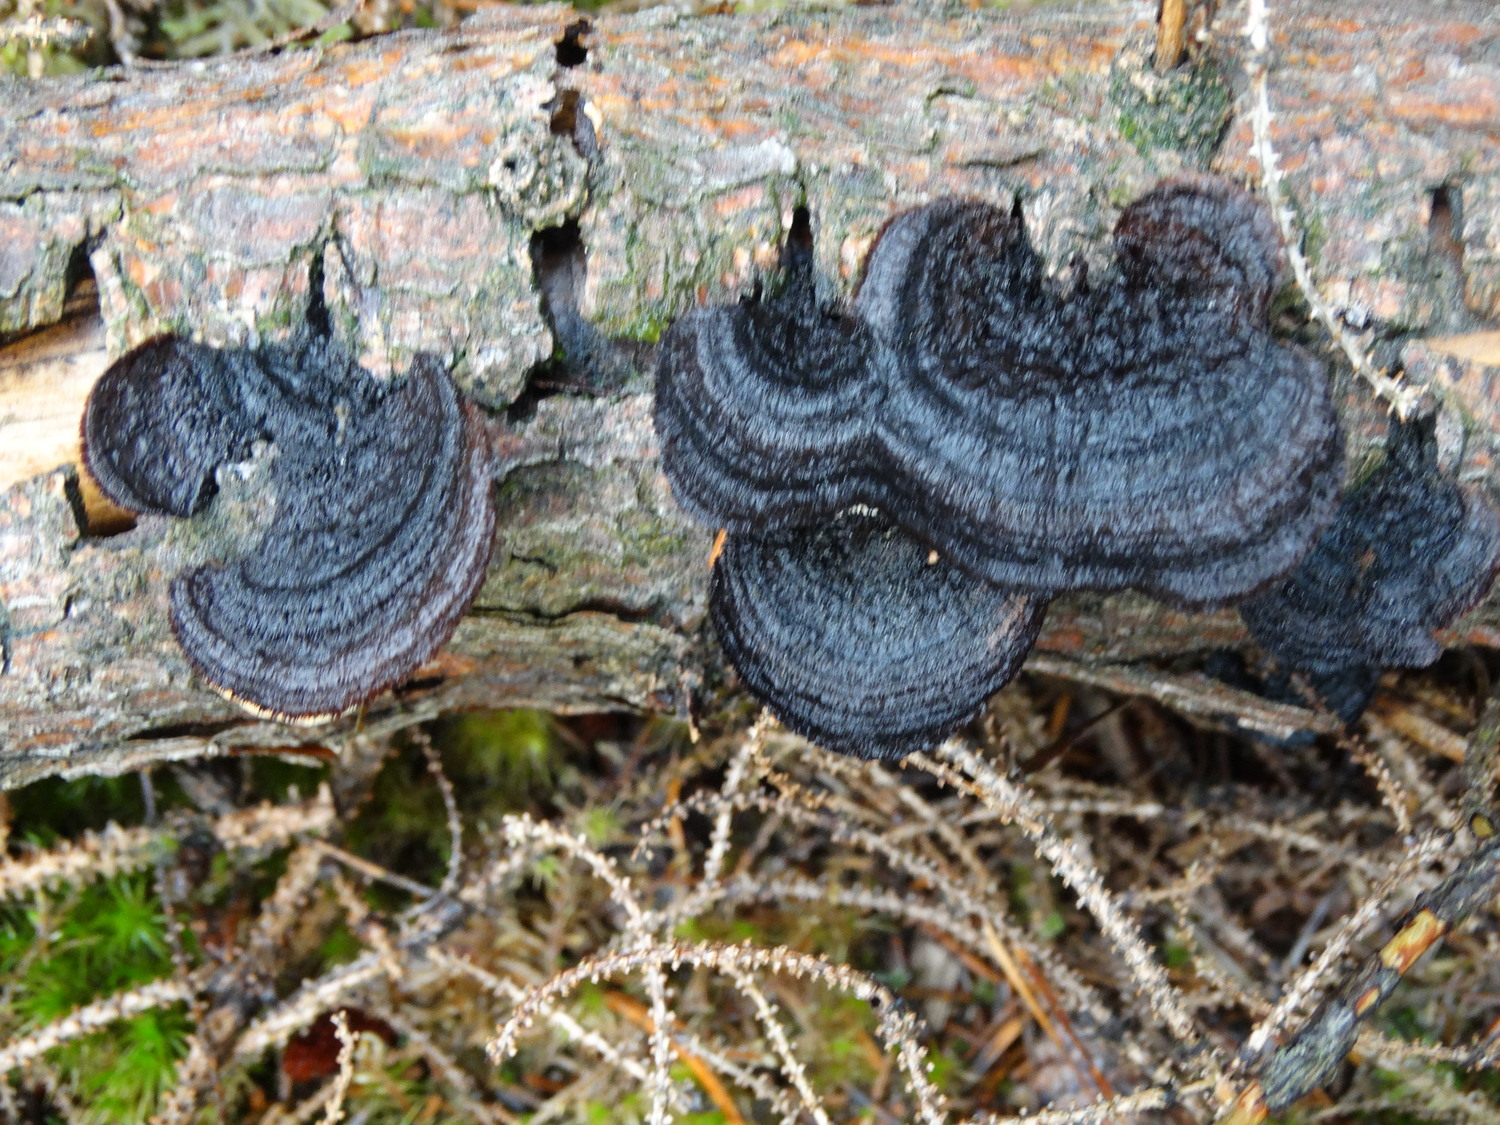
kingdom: Fungi
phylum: Basidiomycota
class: Agaricomycetes
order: Gloeophyllales
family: Gloeophyllaceae
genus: Gloeophyllum
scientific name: Gloeophyllum sepiarium
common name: fyrre-korkhat
